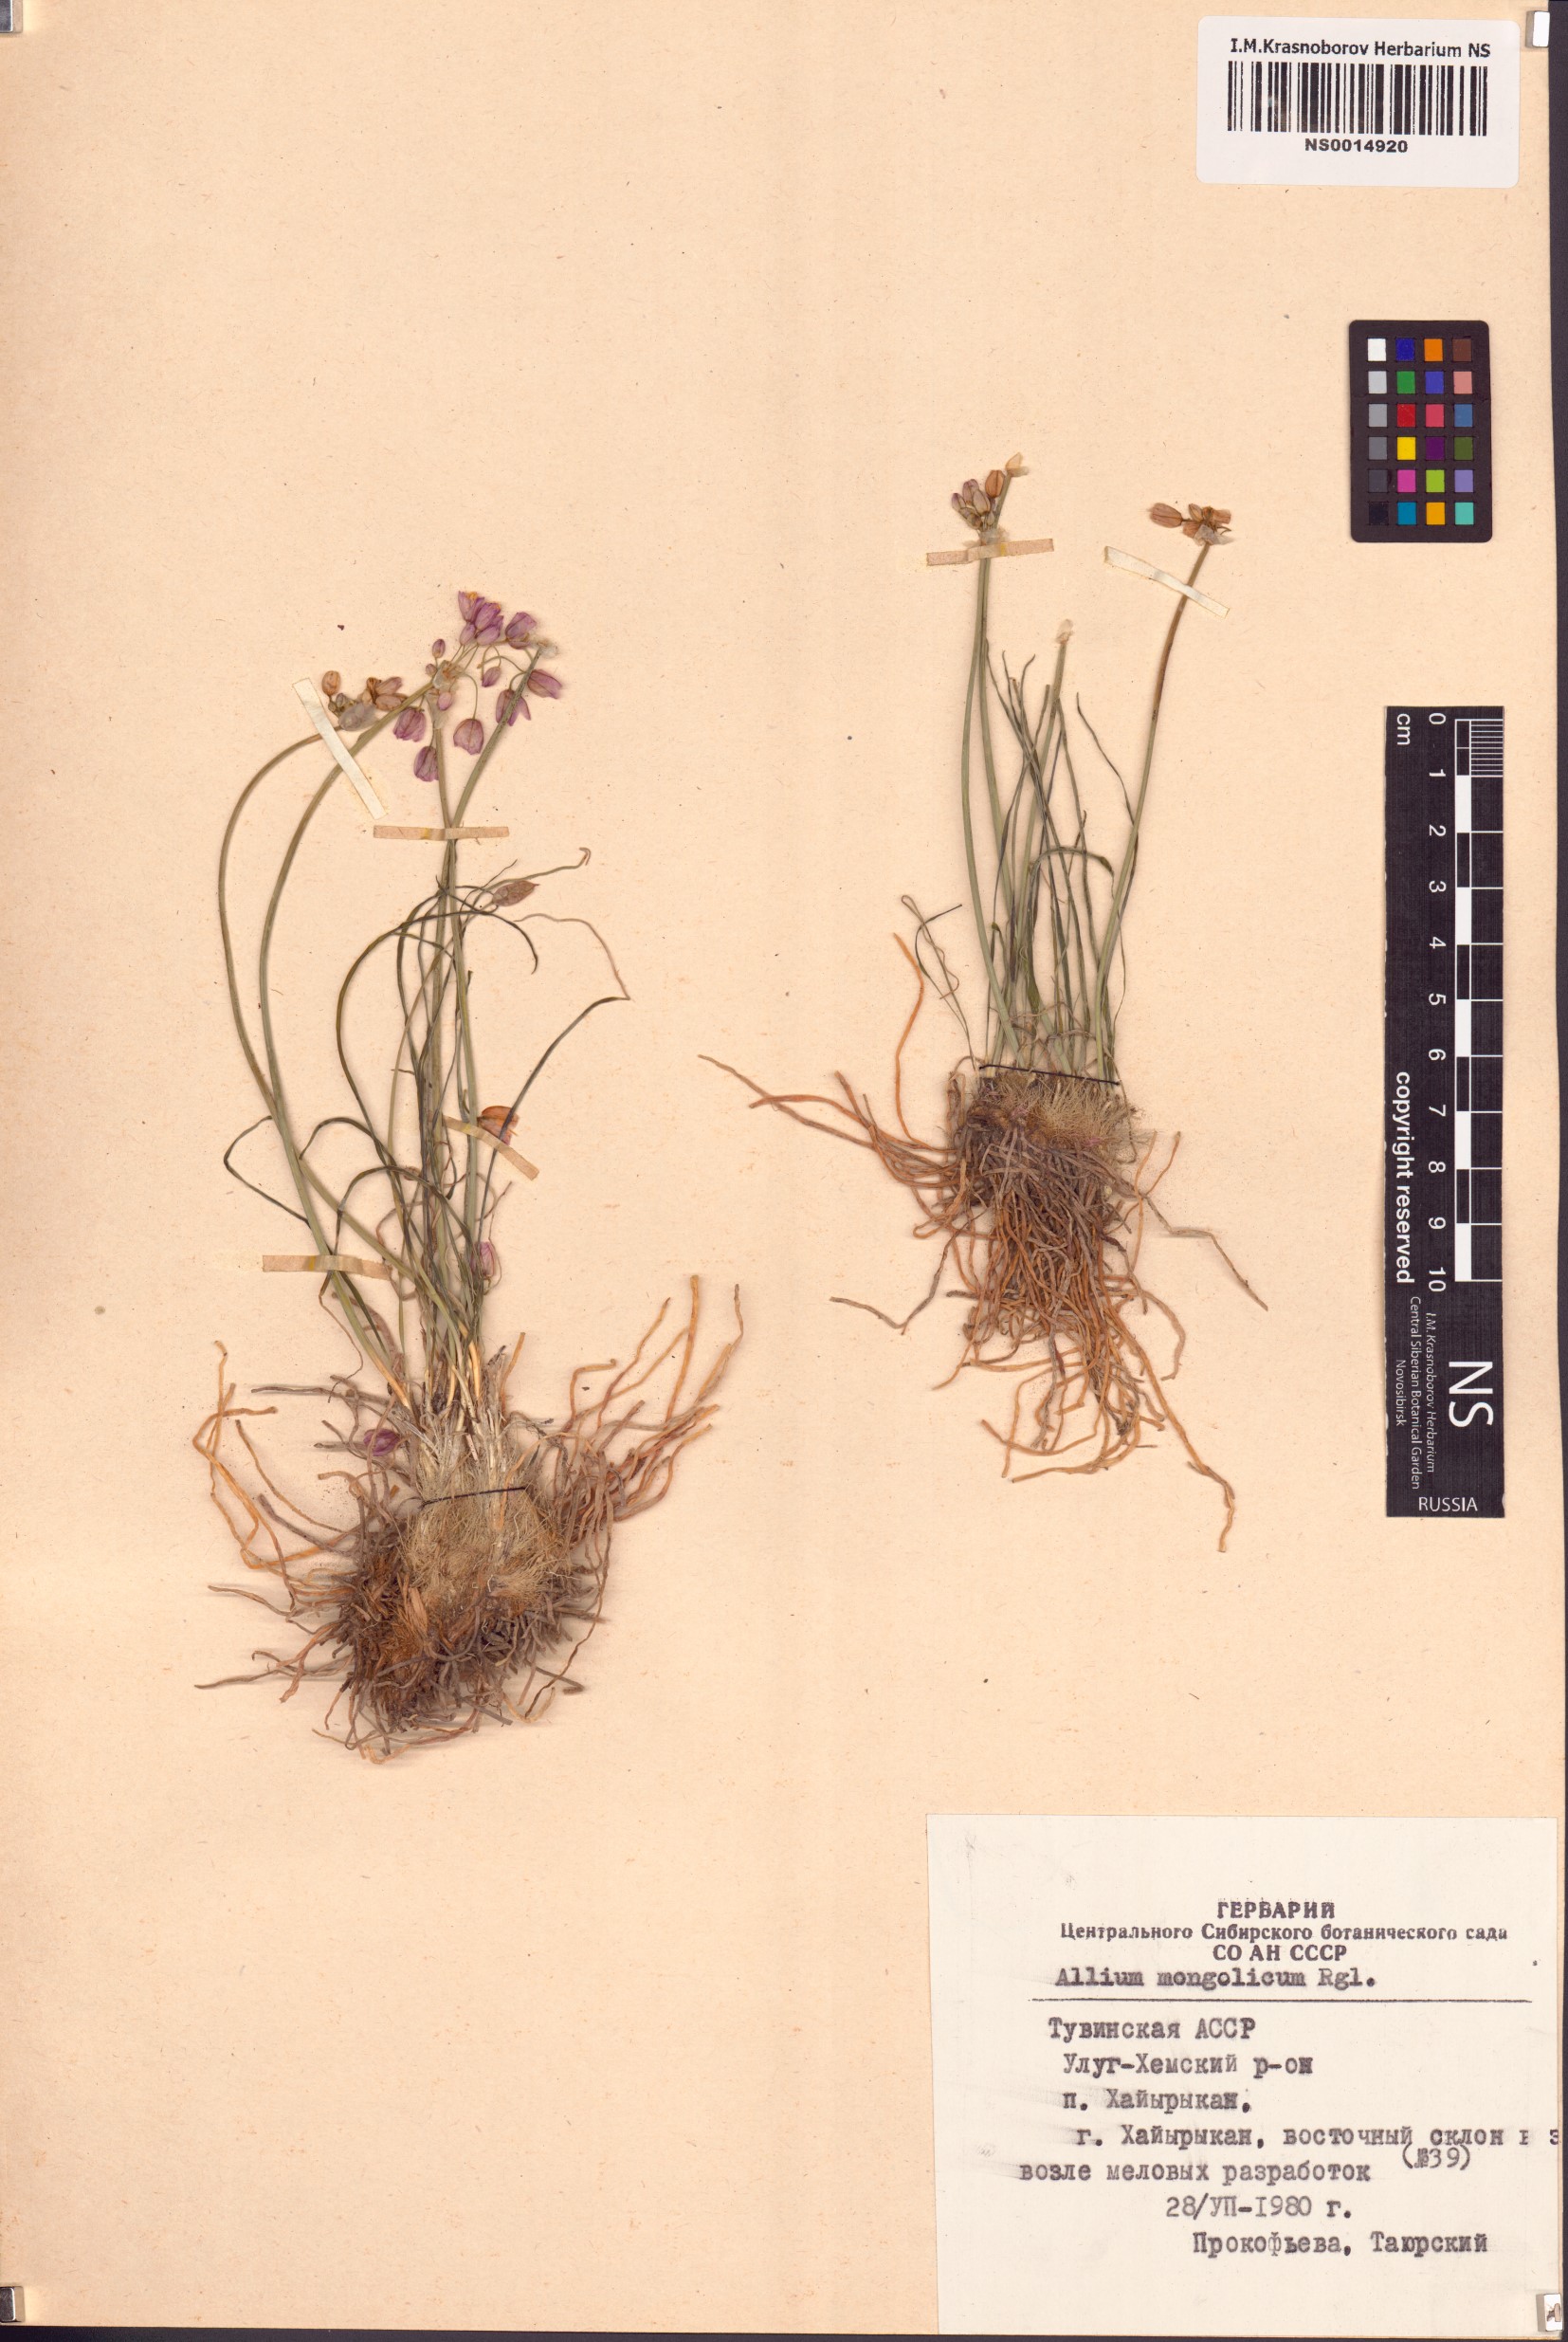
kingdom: Plantae
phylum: Tracheophyta
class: Liliopsida
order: Asparagales
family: Amaryllidaceae
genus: Allium
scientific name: Allium mongolicum
